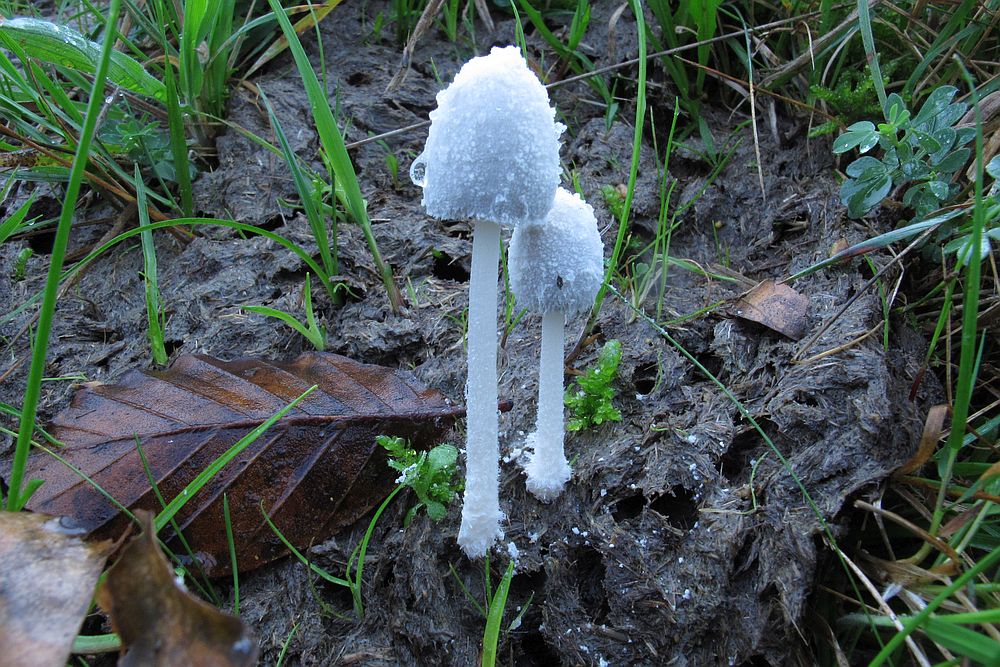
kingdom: Fungi
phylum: Basidiomycota
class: Agaricomycetes
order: Agaricales
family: Psathyrellaceae
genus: Coprinopsis
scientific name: Coprinopsis nivea
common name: snehvid blækhat
